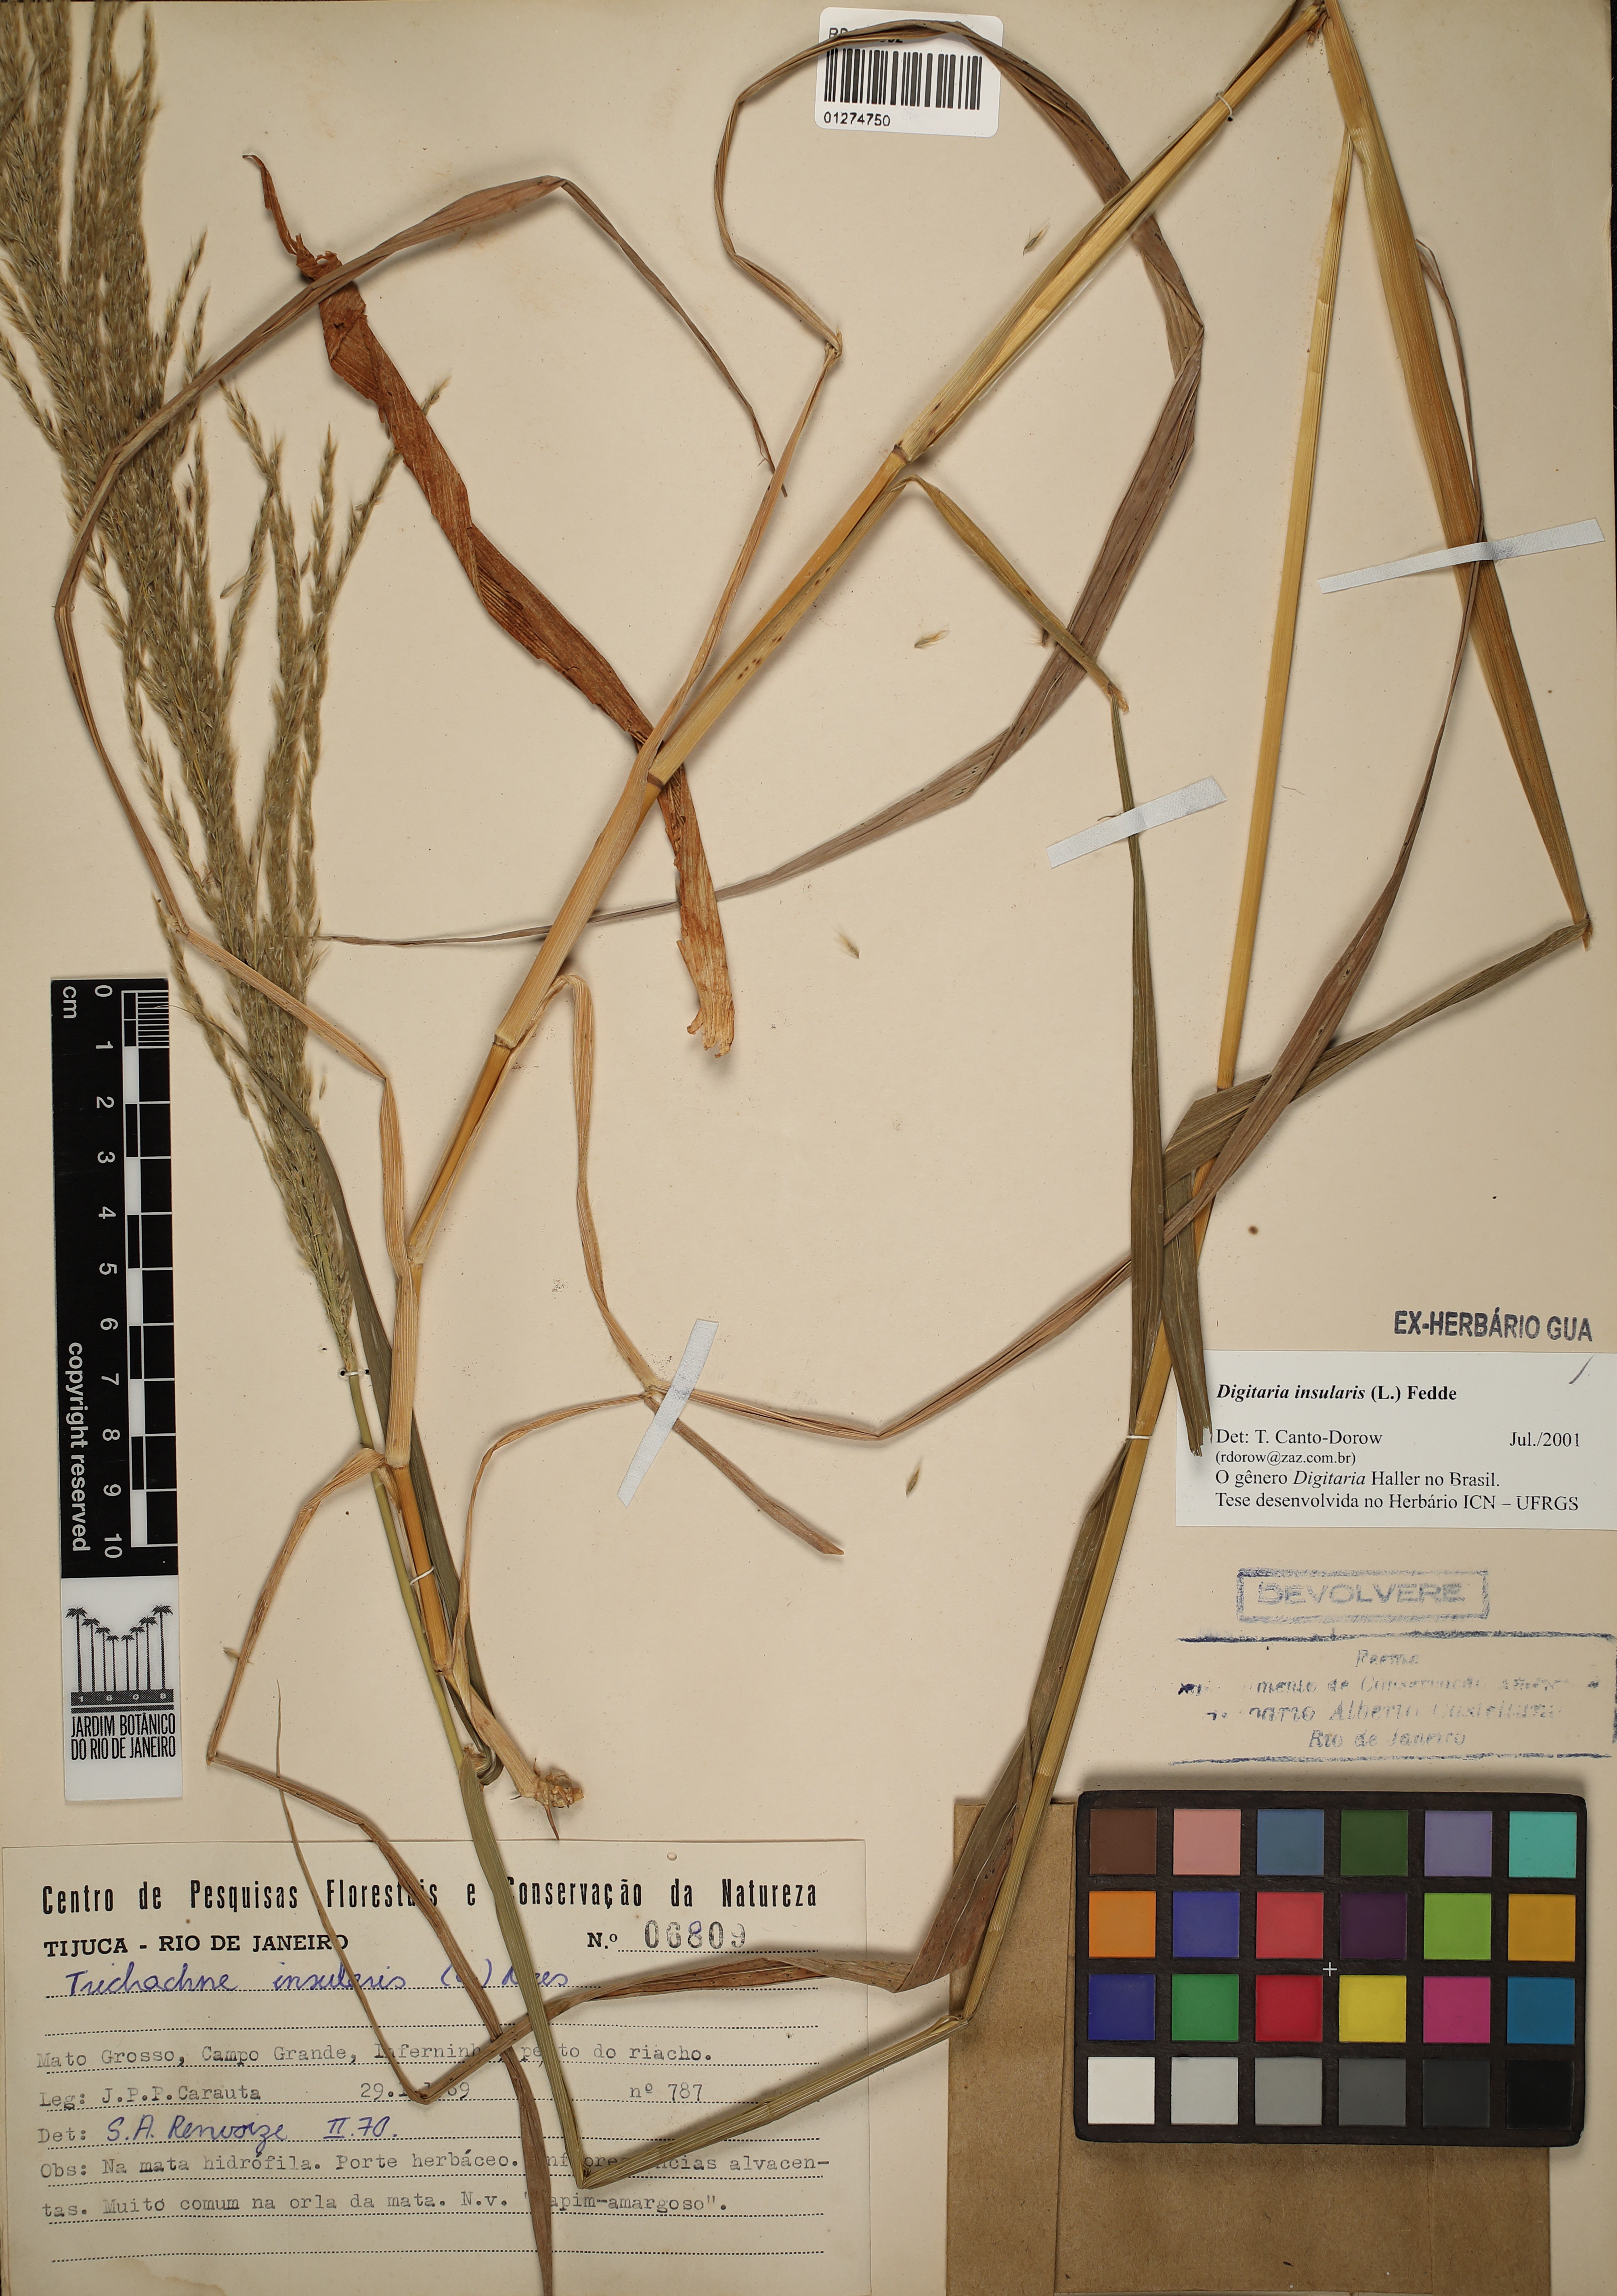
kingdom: Plantae
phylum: Tracheophyta
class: Liliopsida
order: Poales
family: Poaceae
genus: Digitaria
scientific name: Digitaria insularis
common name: Sourgrass
